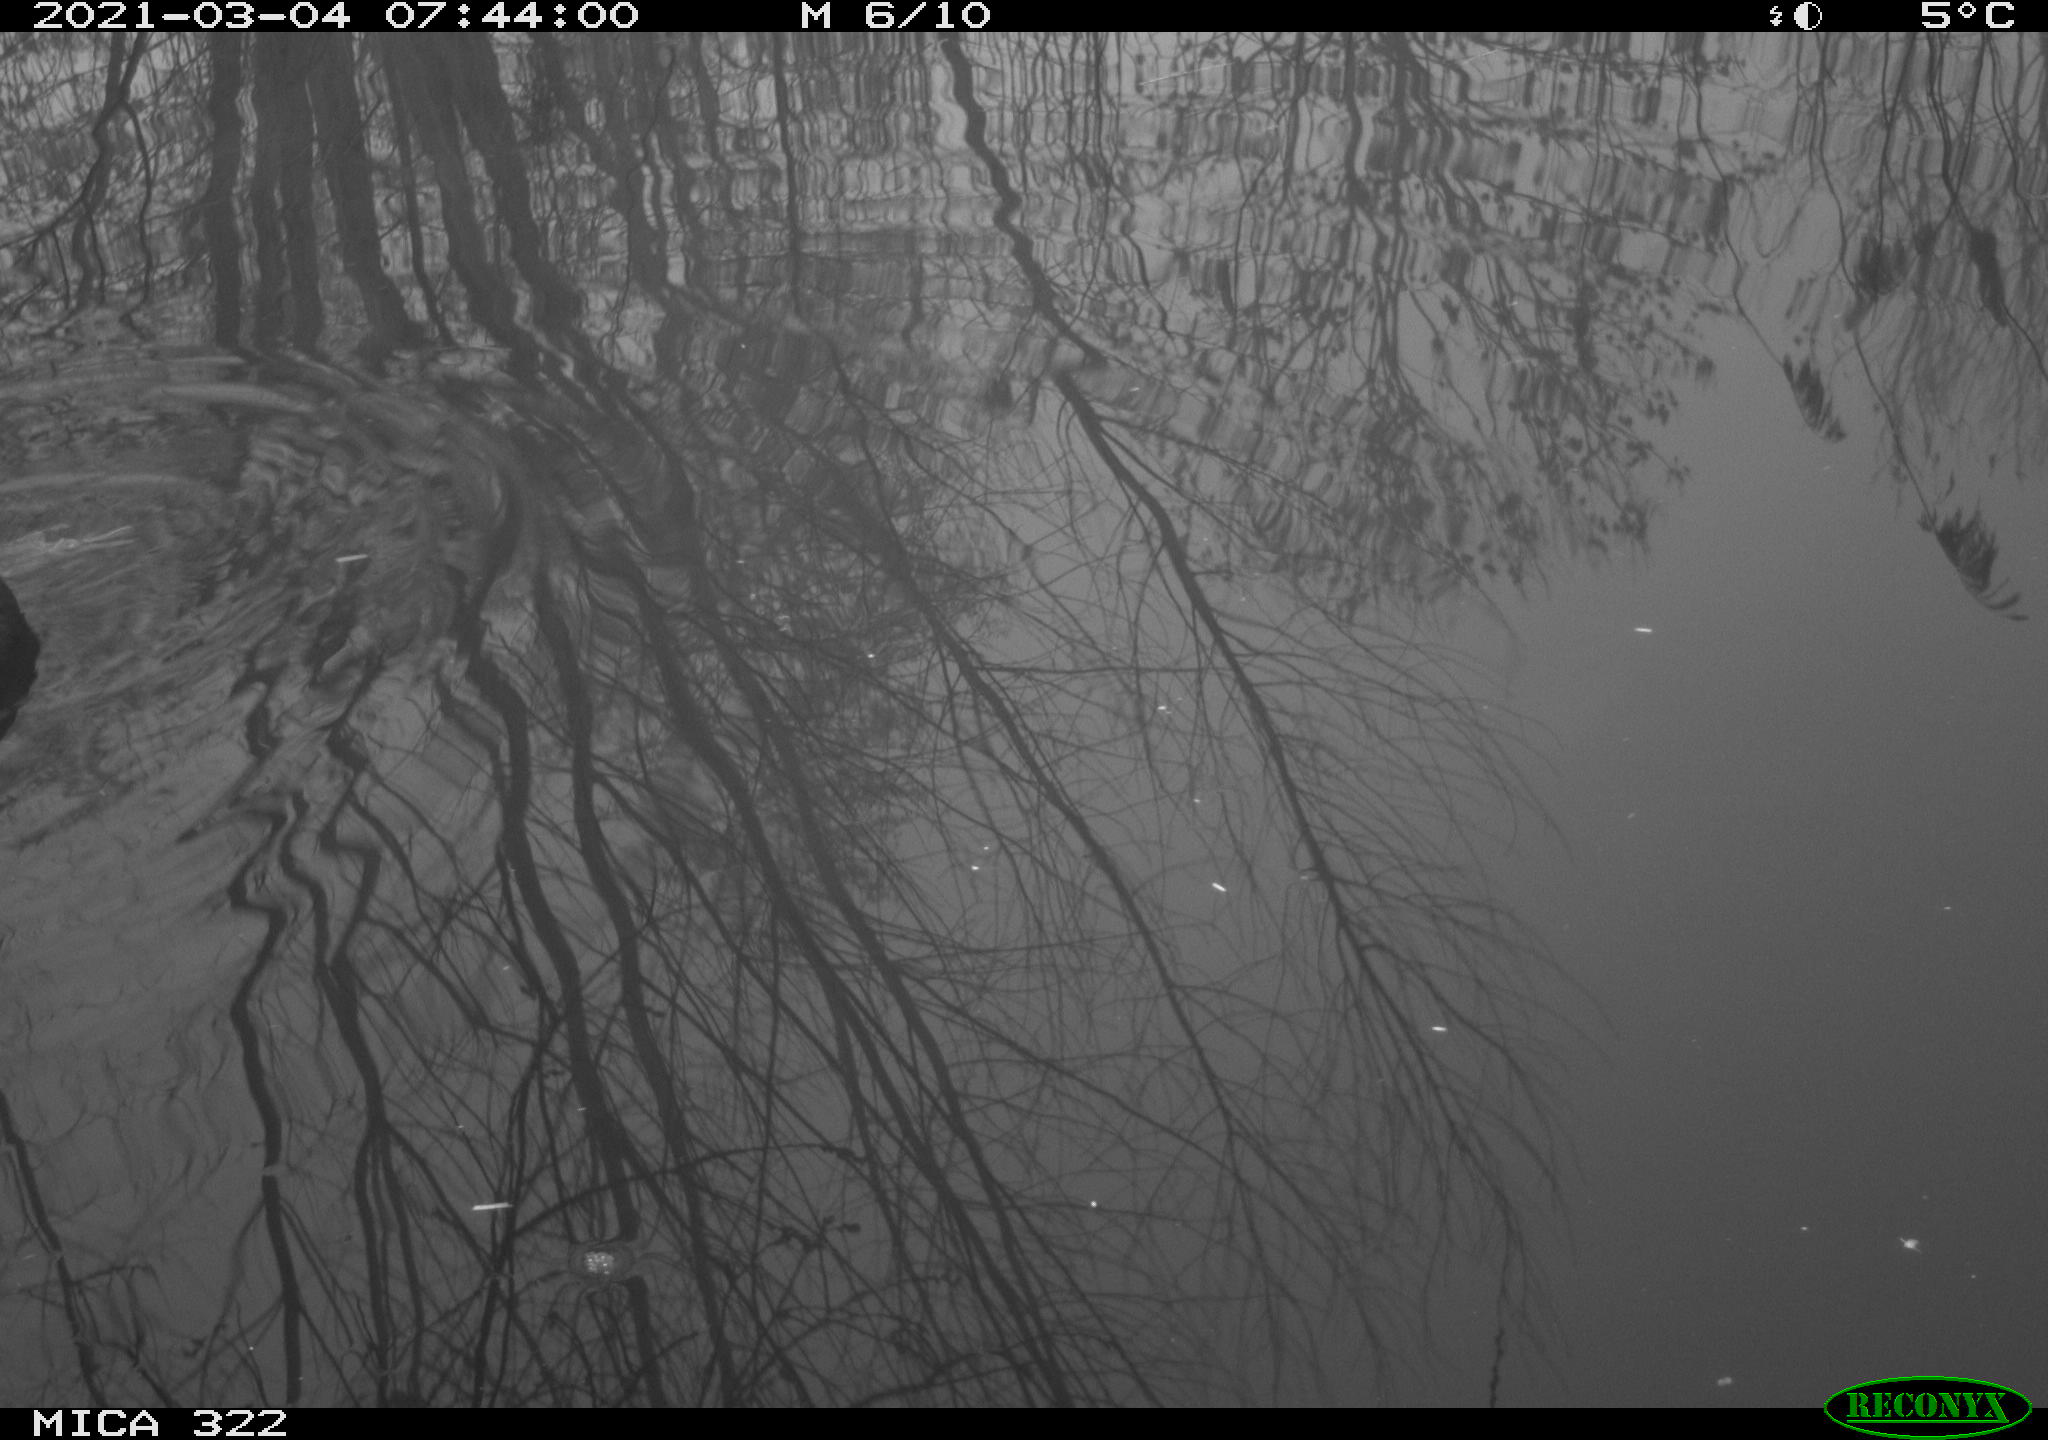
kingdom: Animalia
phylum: Chordata
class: Aves
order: Gruiformes
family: Rallidae
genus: Fulica
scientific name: Fulica atra
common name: Eurasian coot
